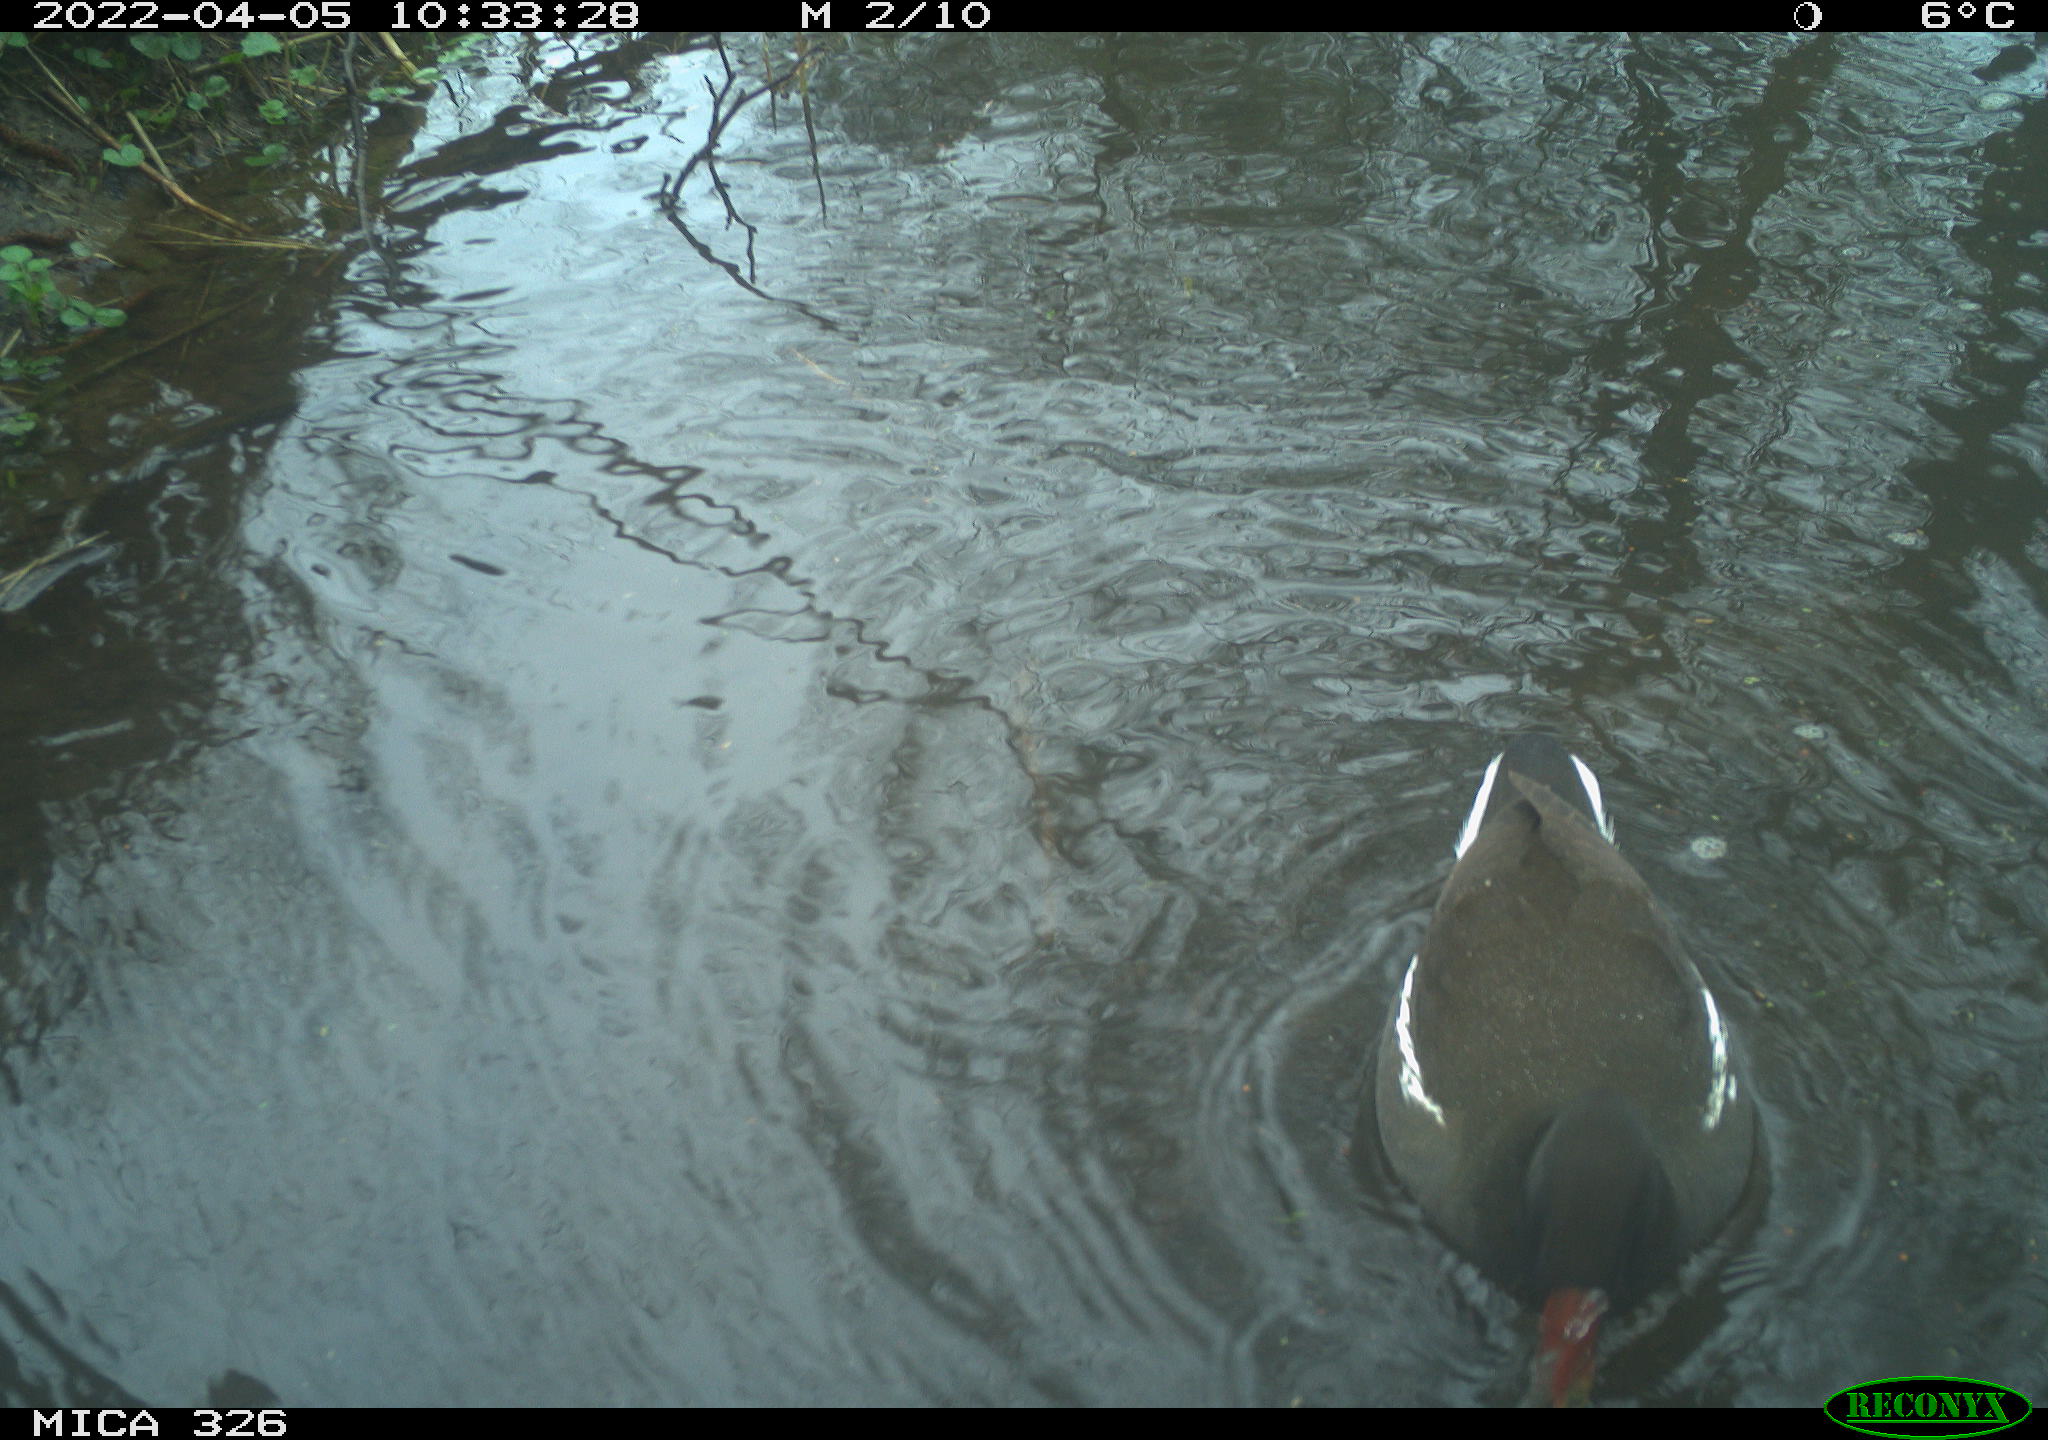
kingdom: Animalia
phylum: Chordata
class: Aves
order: Gruiformes
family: Rallidae
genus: Gallinula
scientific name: Gallinula chloropus
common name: Common moorhen
